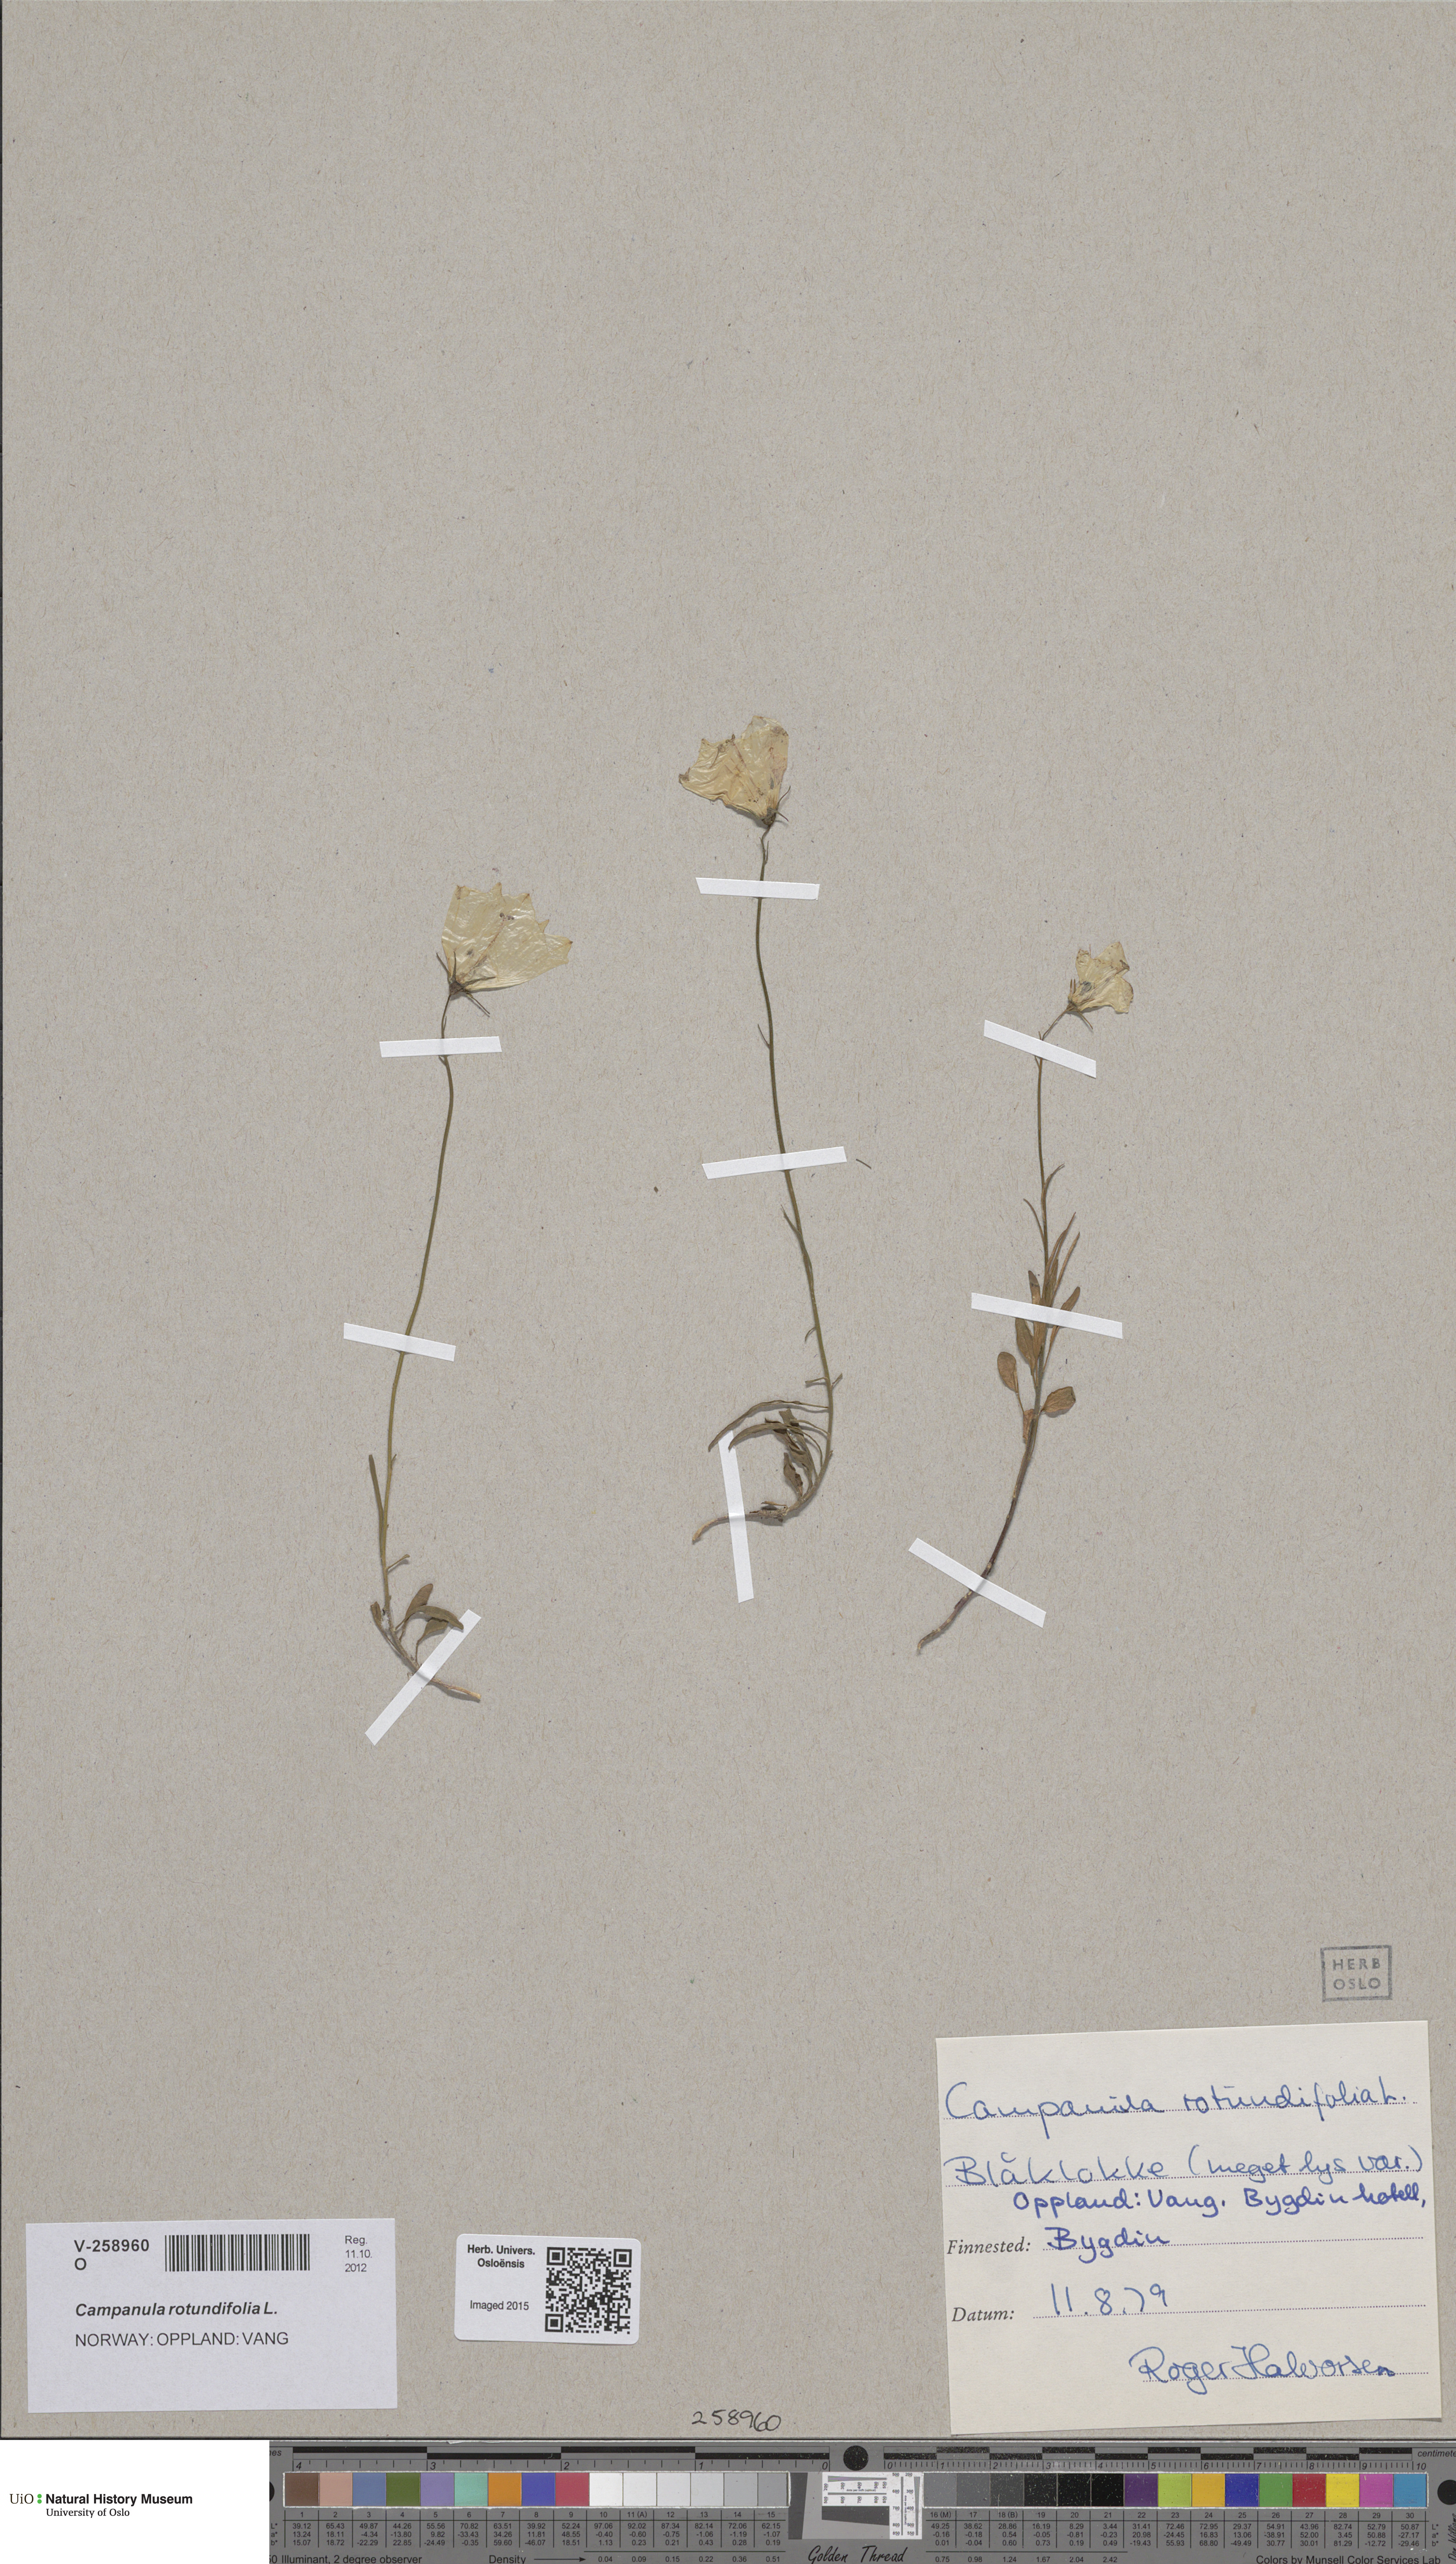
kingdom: Plantae
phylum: Tracheophyta
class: Magnoliopsida
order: Asterales
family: Campanulaceae
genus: Campanula
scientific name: Campanula rotundifolia
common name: Harebell
